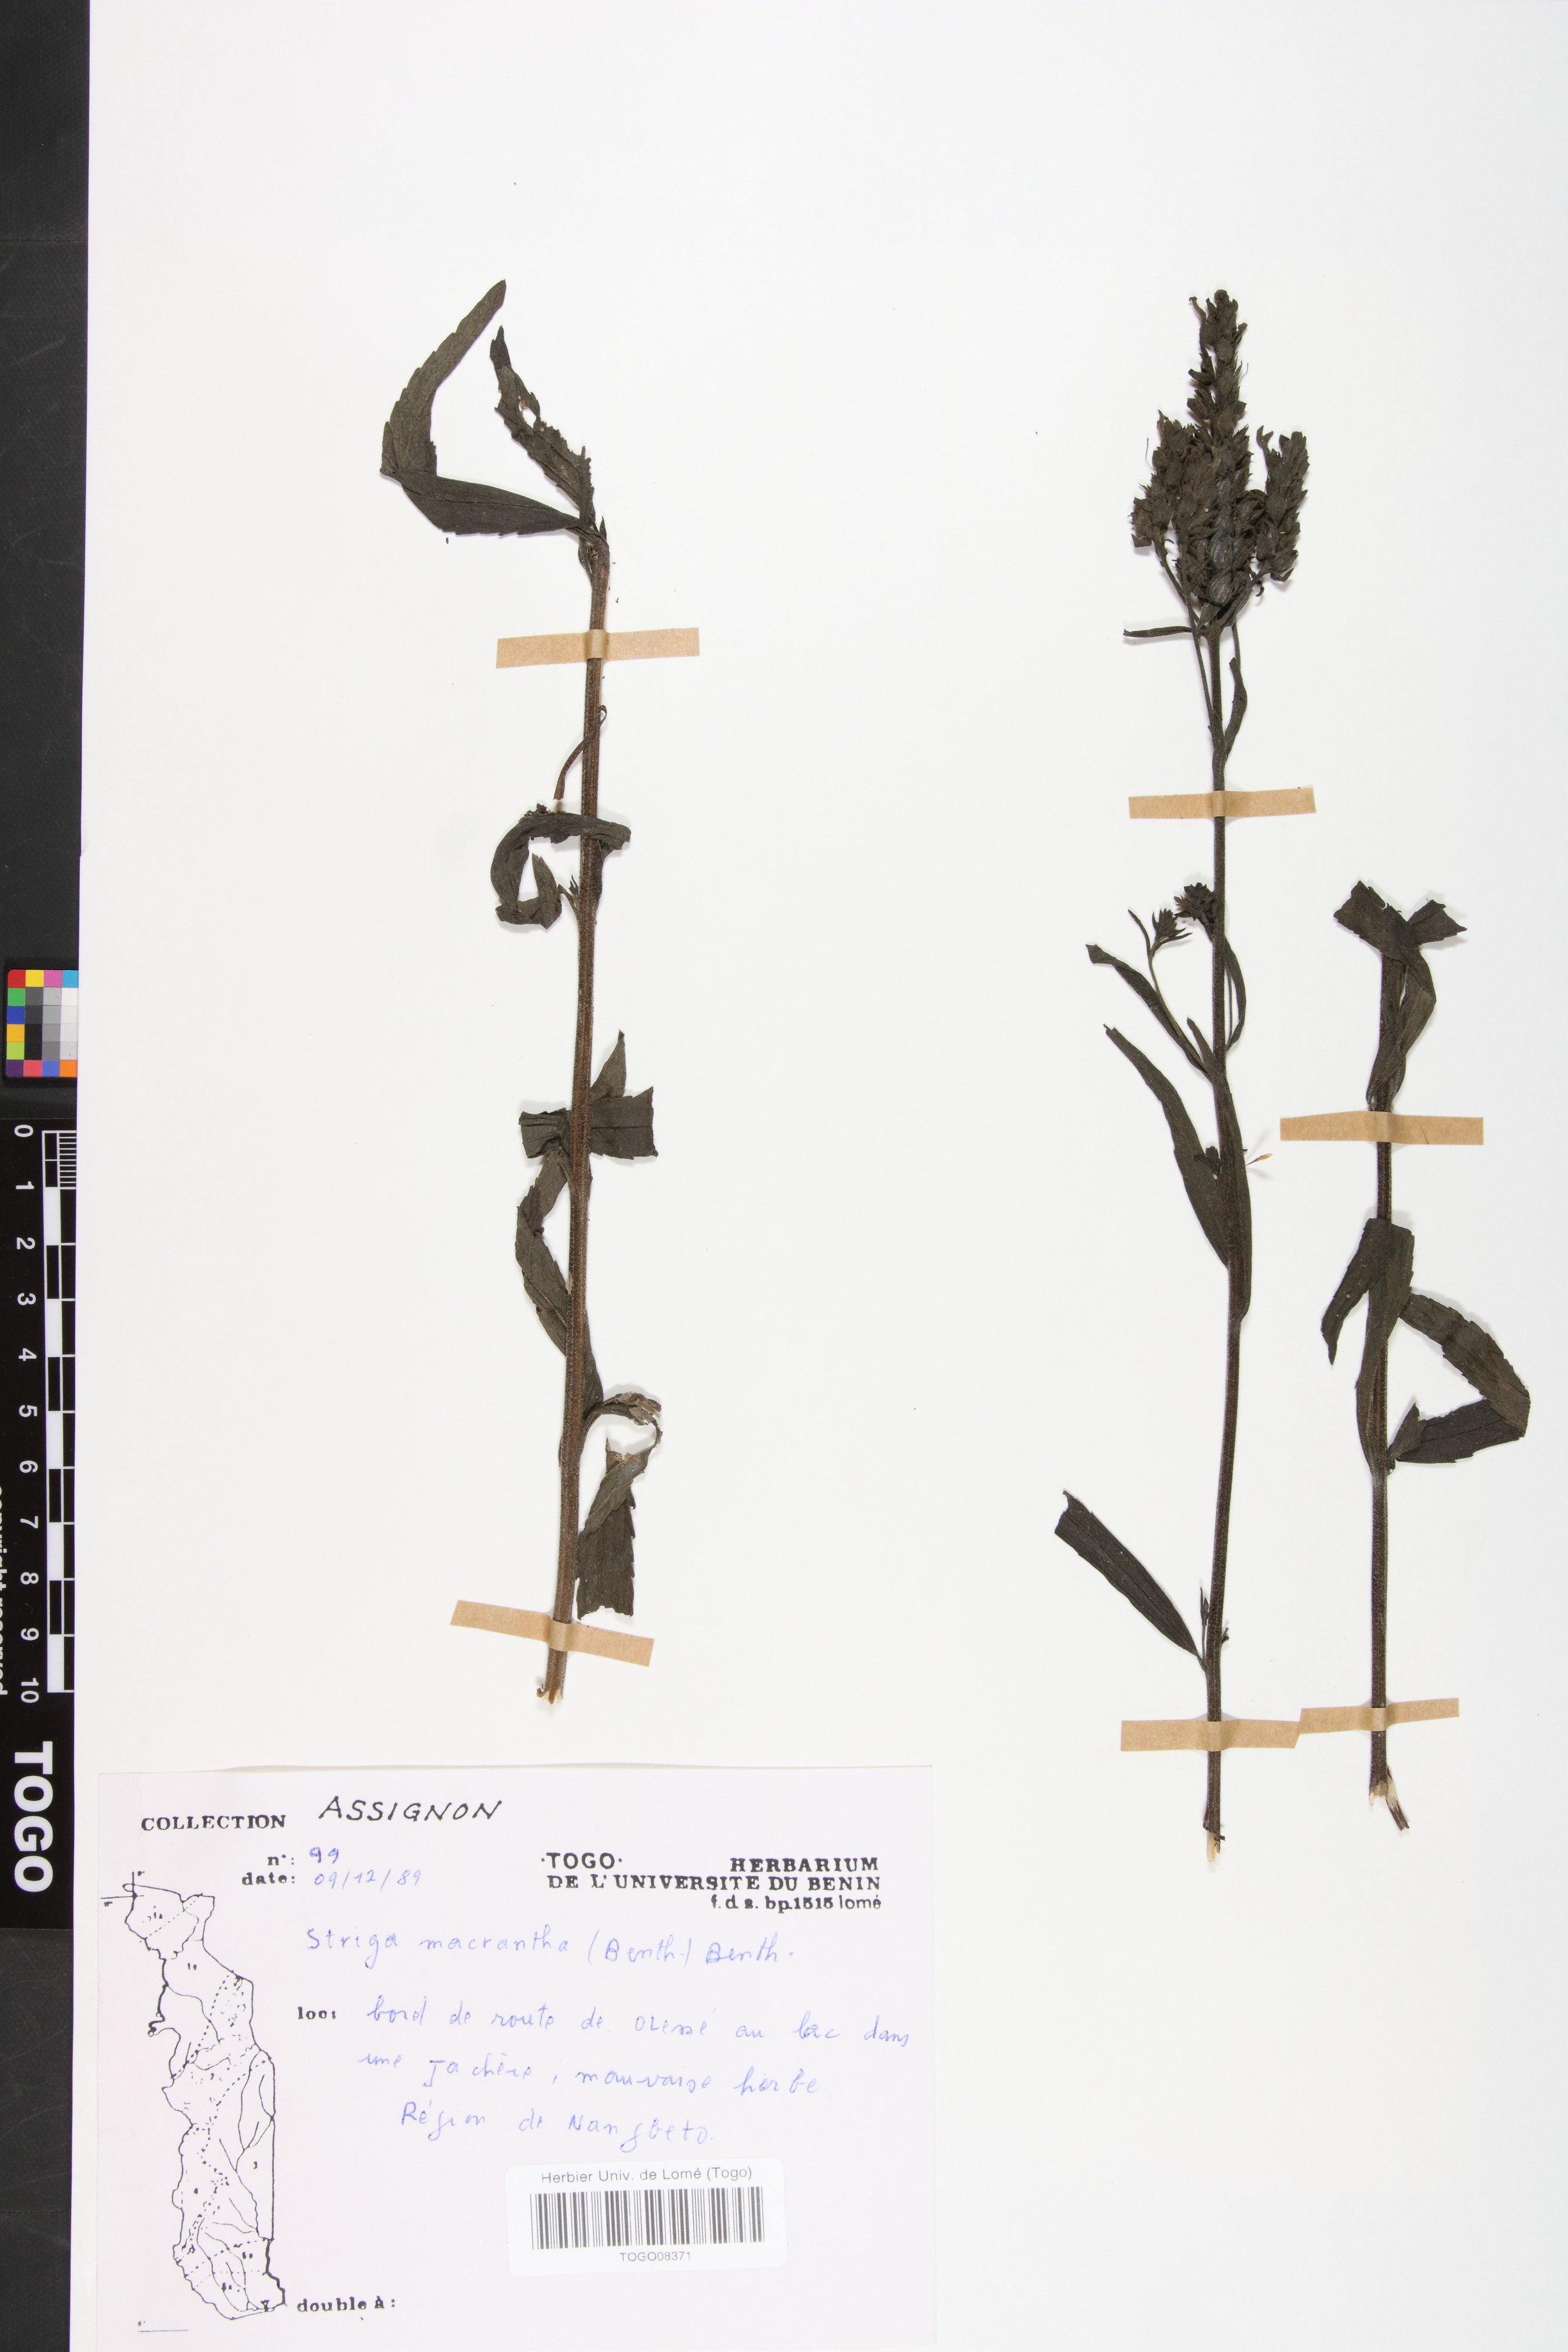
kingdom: Plantae
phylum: Tracheophyta
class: Magnoliopsida
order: Lamiales
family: Orobanchaceae
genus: Striga
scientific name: Striga macrantha
